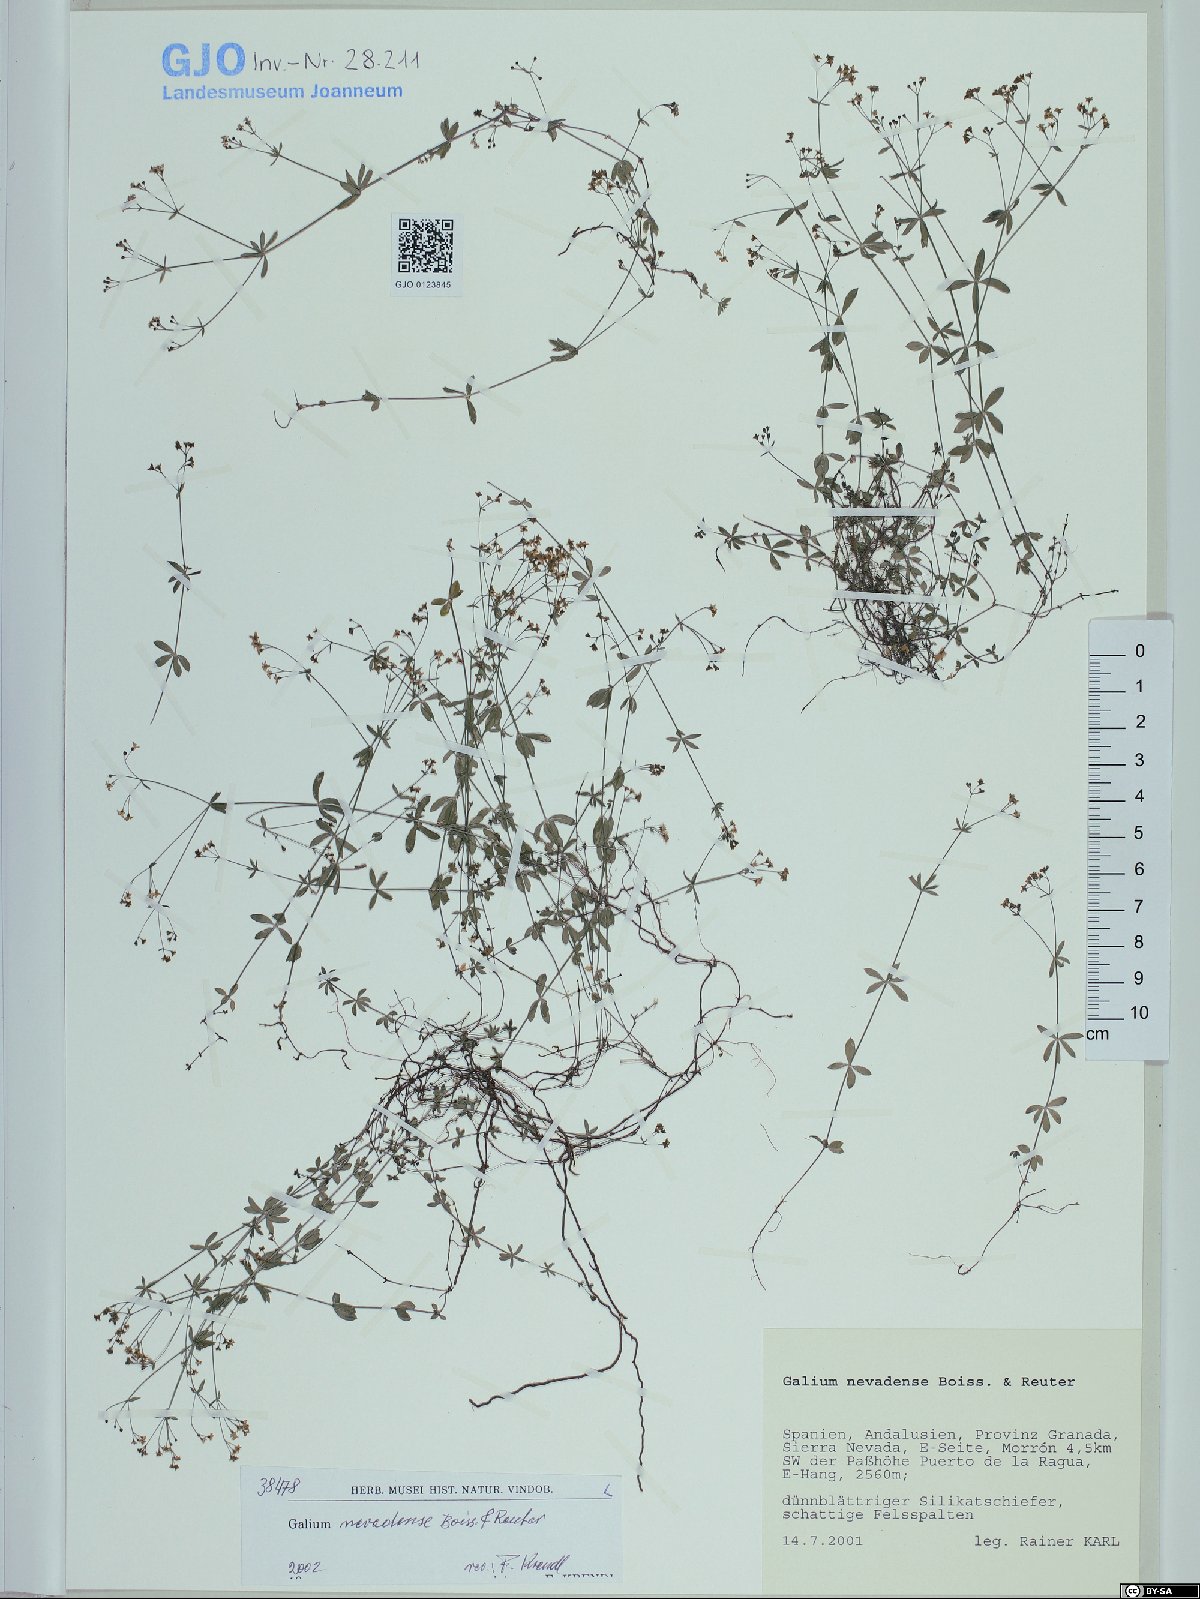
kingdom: Plantae
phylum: Tracheophyta
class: Magnoliopsida
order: Gentianales
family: Rubiaceae
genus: Galium
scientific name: Galium nevadense
